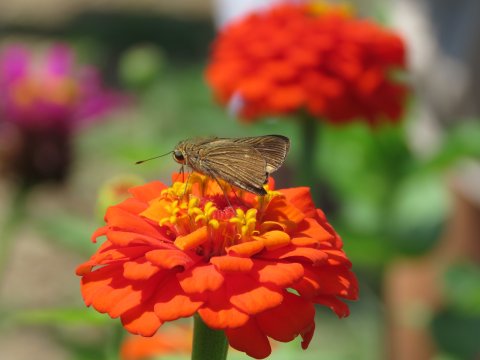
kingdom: Animalia
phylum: Arthropoda
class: Insecta
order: Lepidoptera
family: Hesperiidae
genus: Panoquina
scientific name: Panoquina ocola
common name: Ocola Skipper
